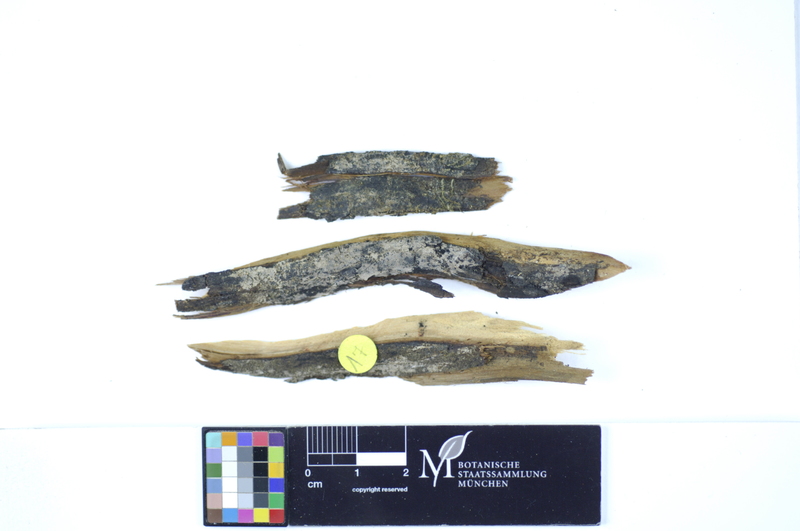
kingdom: Plantae
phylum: Tracheophyta
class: Pinopsida
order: Pinales
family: Cupressaceae
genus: Juniperus
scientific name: Juniperus
